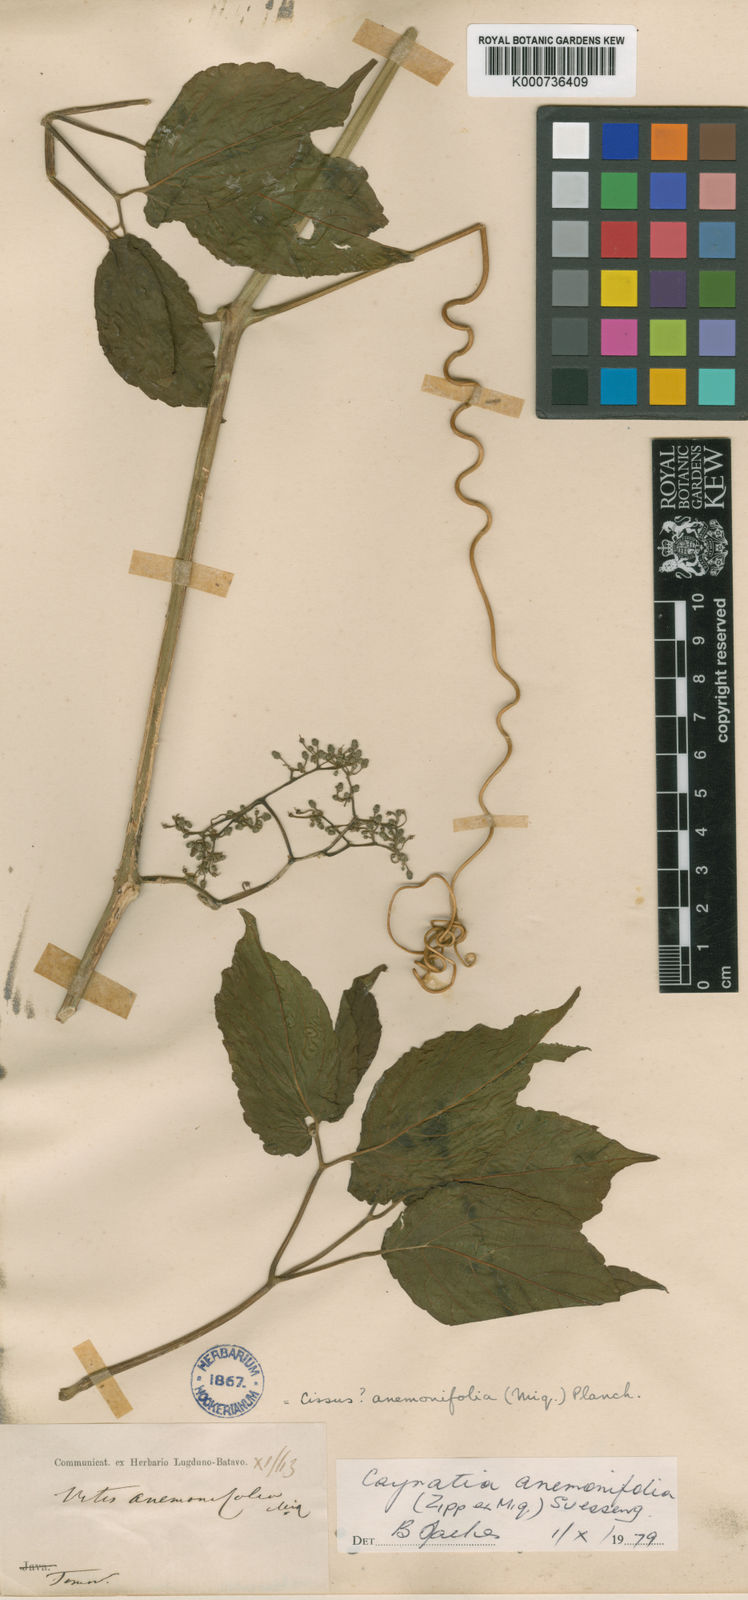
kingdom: Plantae
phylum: Tracheophyta
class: Magnoliopsida
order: Vitales
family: Vitaceae
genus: Cayratia
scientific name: Cayratia anemonifolia
